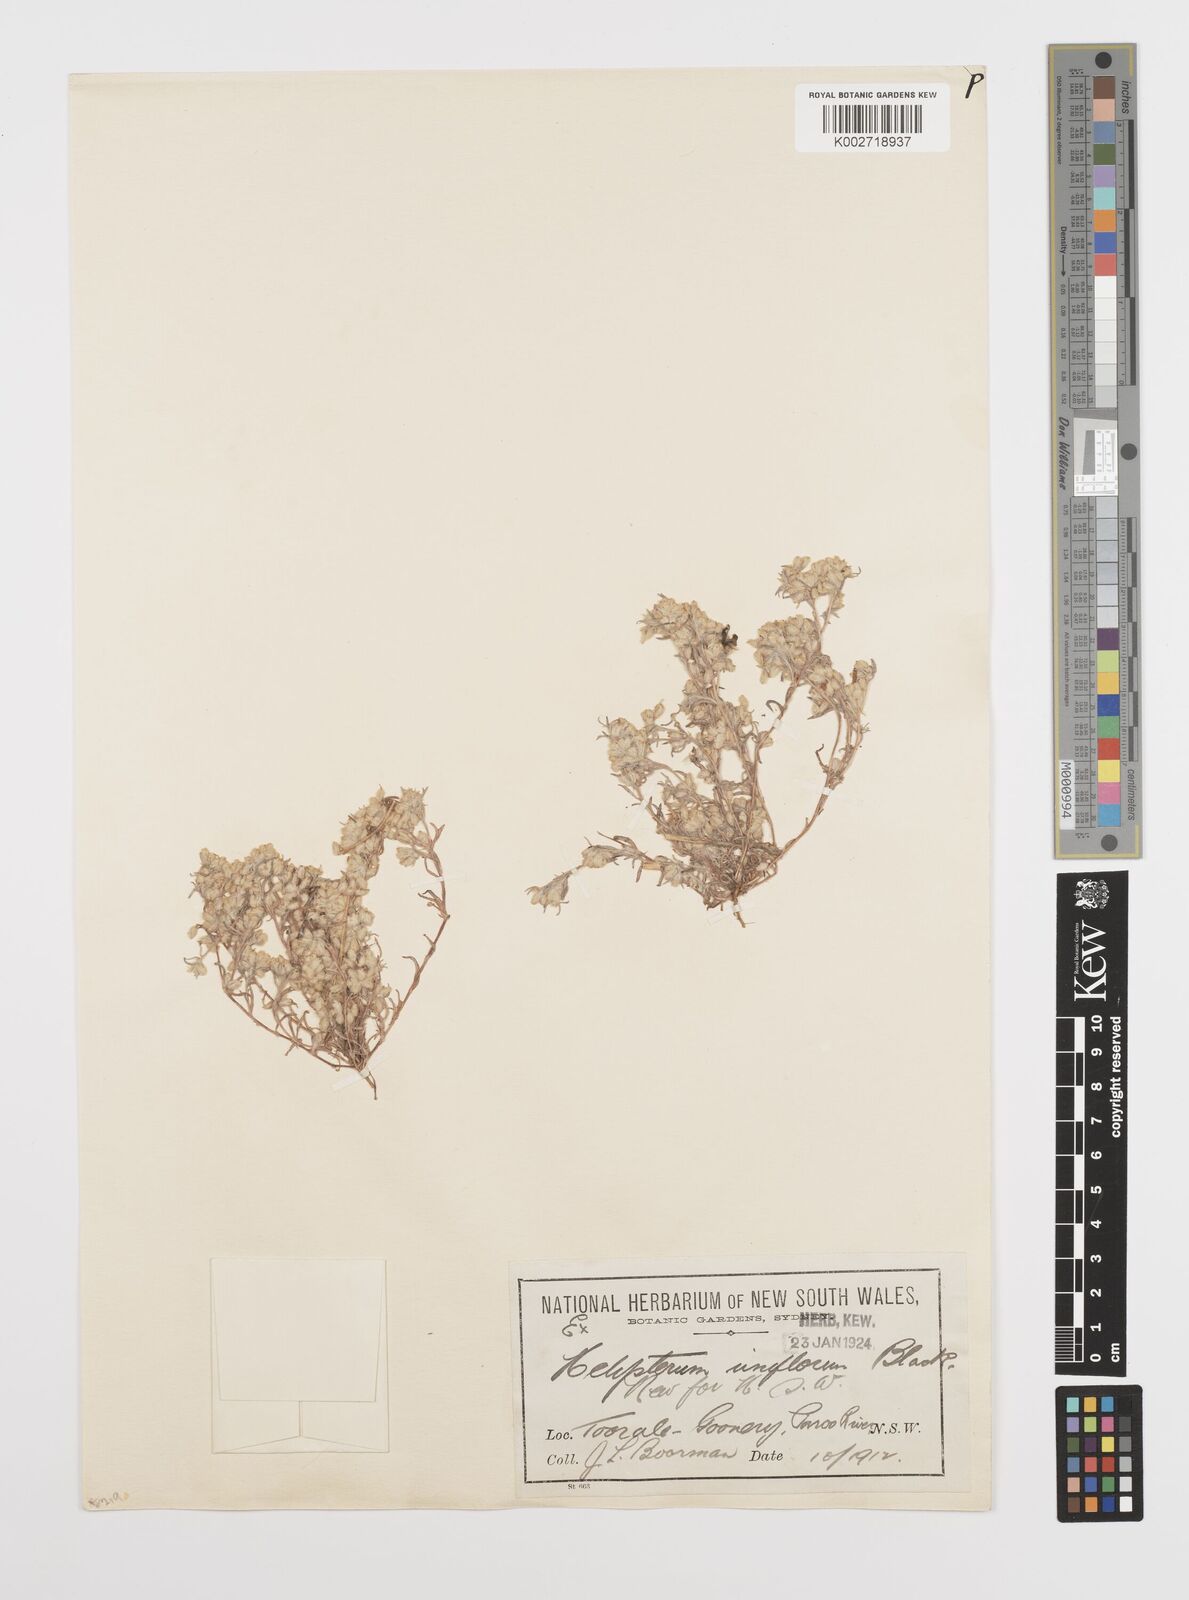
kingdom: Plantae
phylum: Tracheophyta
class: Magnoliopsida
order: Asterales
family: Asteraceae
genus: Rhodanthe
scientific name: Rhodanthe uniflora
